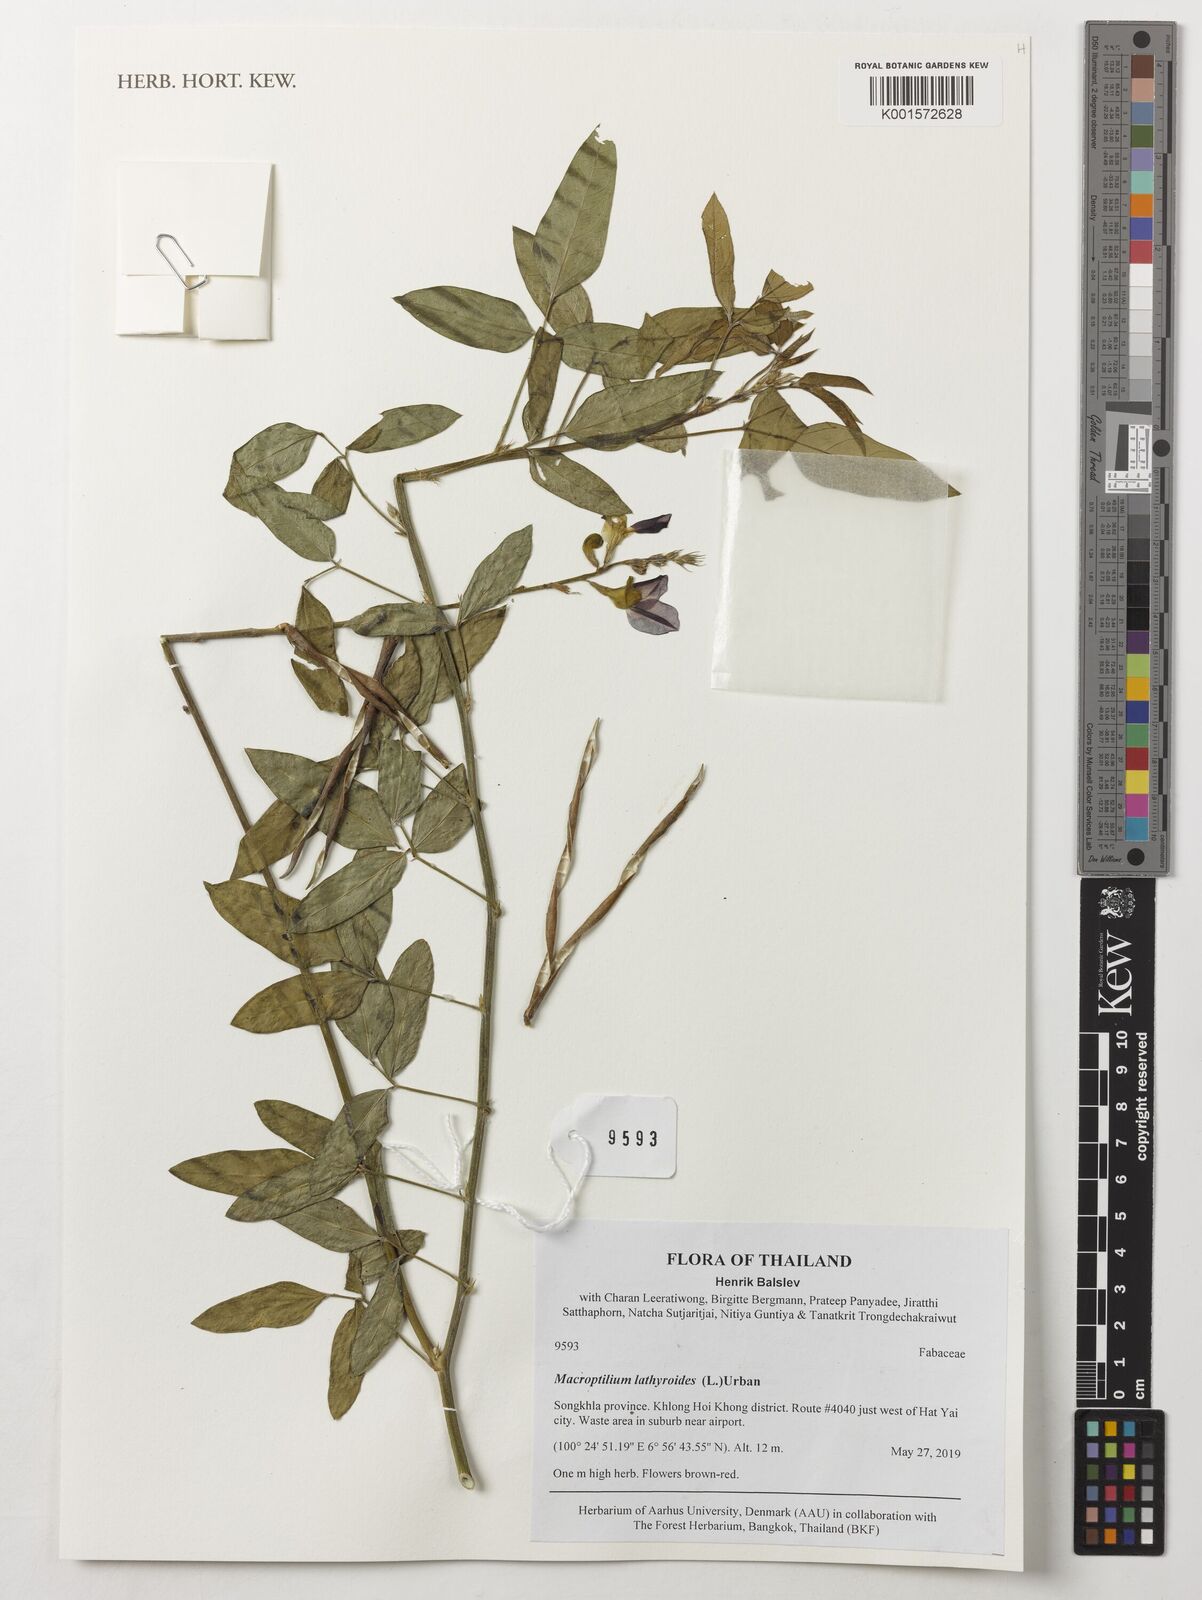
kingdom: Plantae
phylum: Tracheophyta
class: Magnoliopsida
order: Fabales
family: Fabaceae
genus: Macroptilium
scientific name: Macroptilium lathyroides
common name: Wild bushbean
